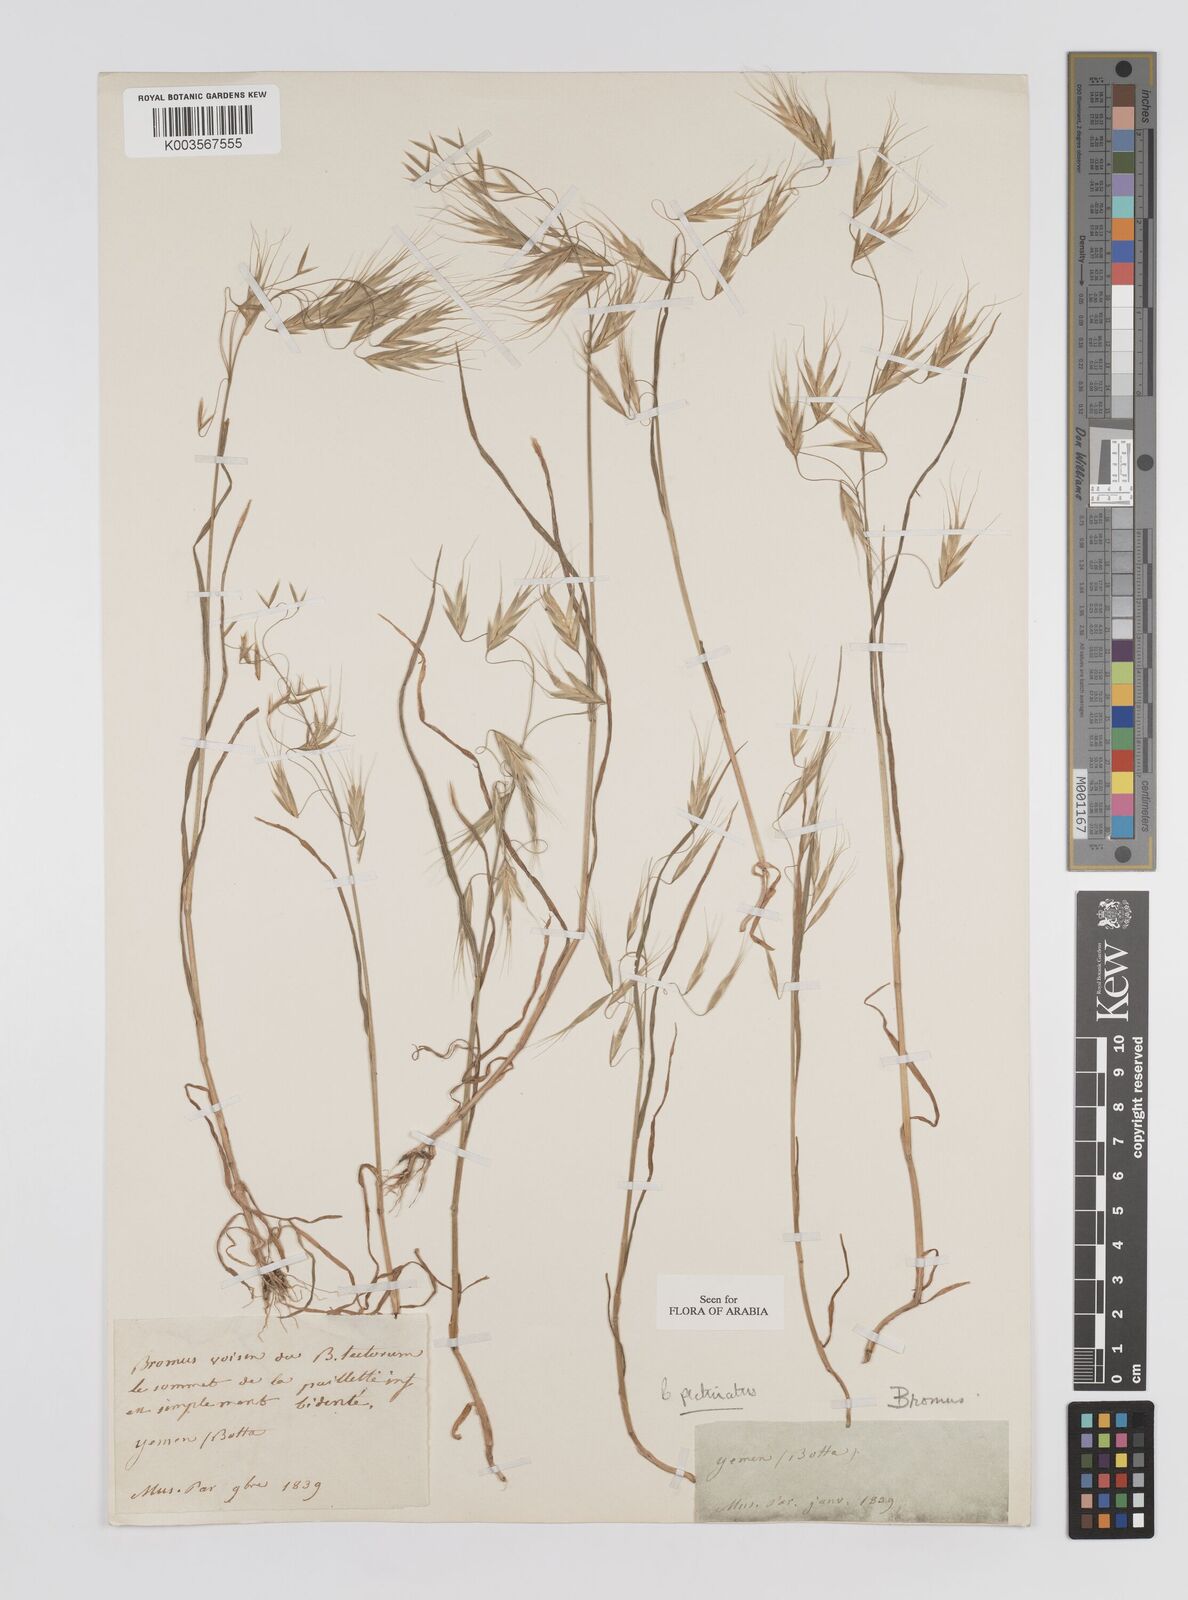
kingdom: Plantae
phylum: Tracheophyta
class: Liliopsida
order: Poales
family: Poaceae
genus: Bromus
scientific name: Bromus pectinatus
